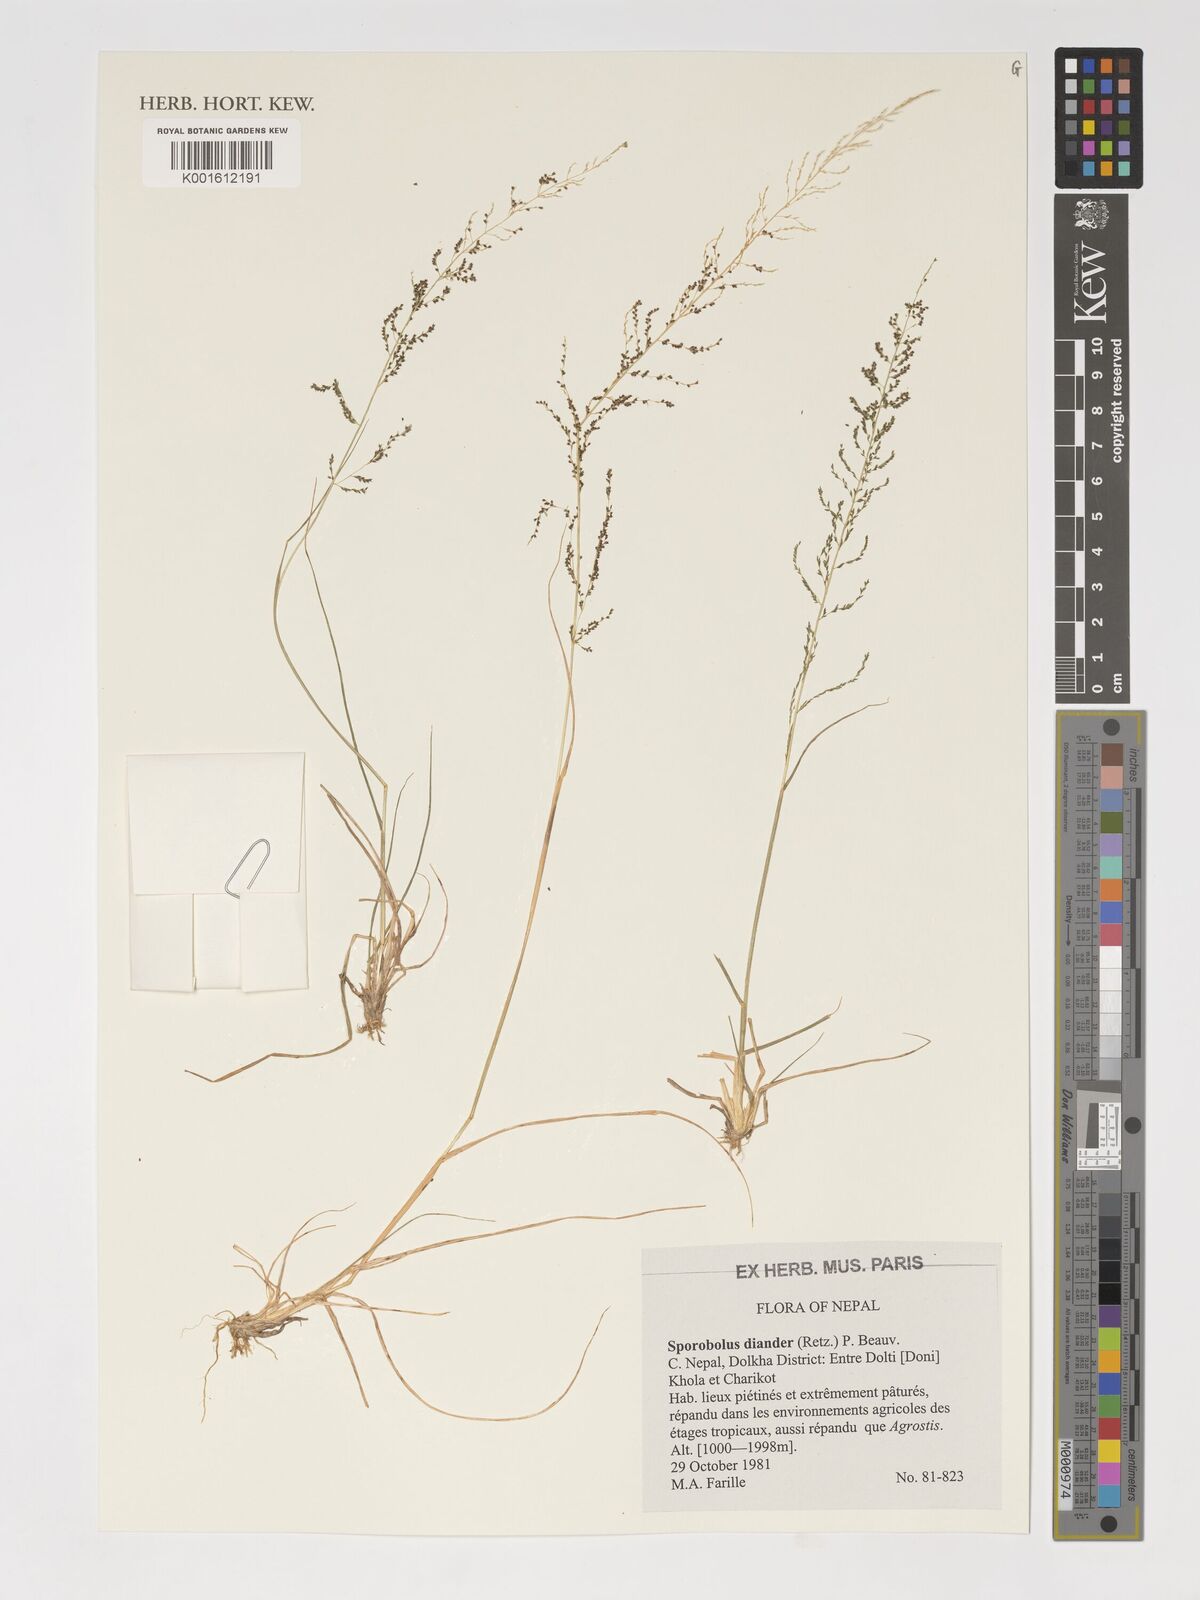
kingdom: Plantae
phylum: Tracheophyta
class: Liliopsida
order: Poales
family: Poaceae
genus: Sporobolus
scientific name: Sporobolus
